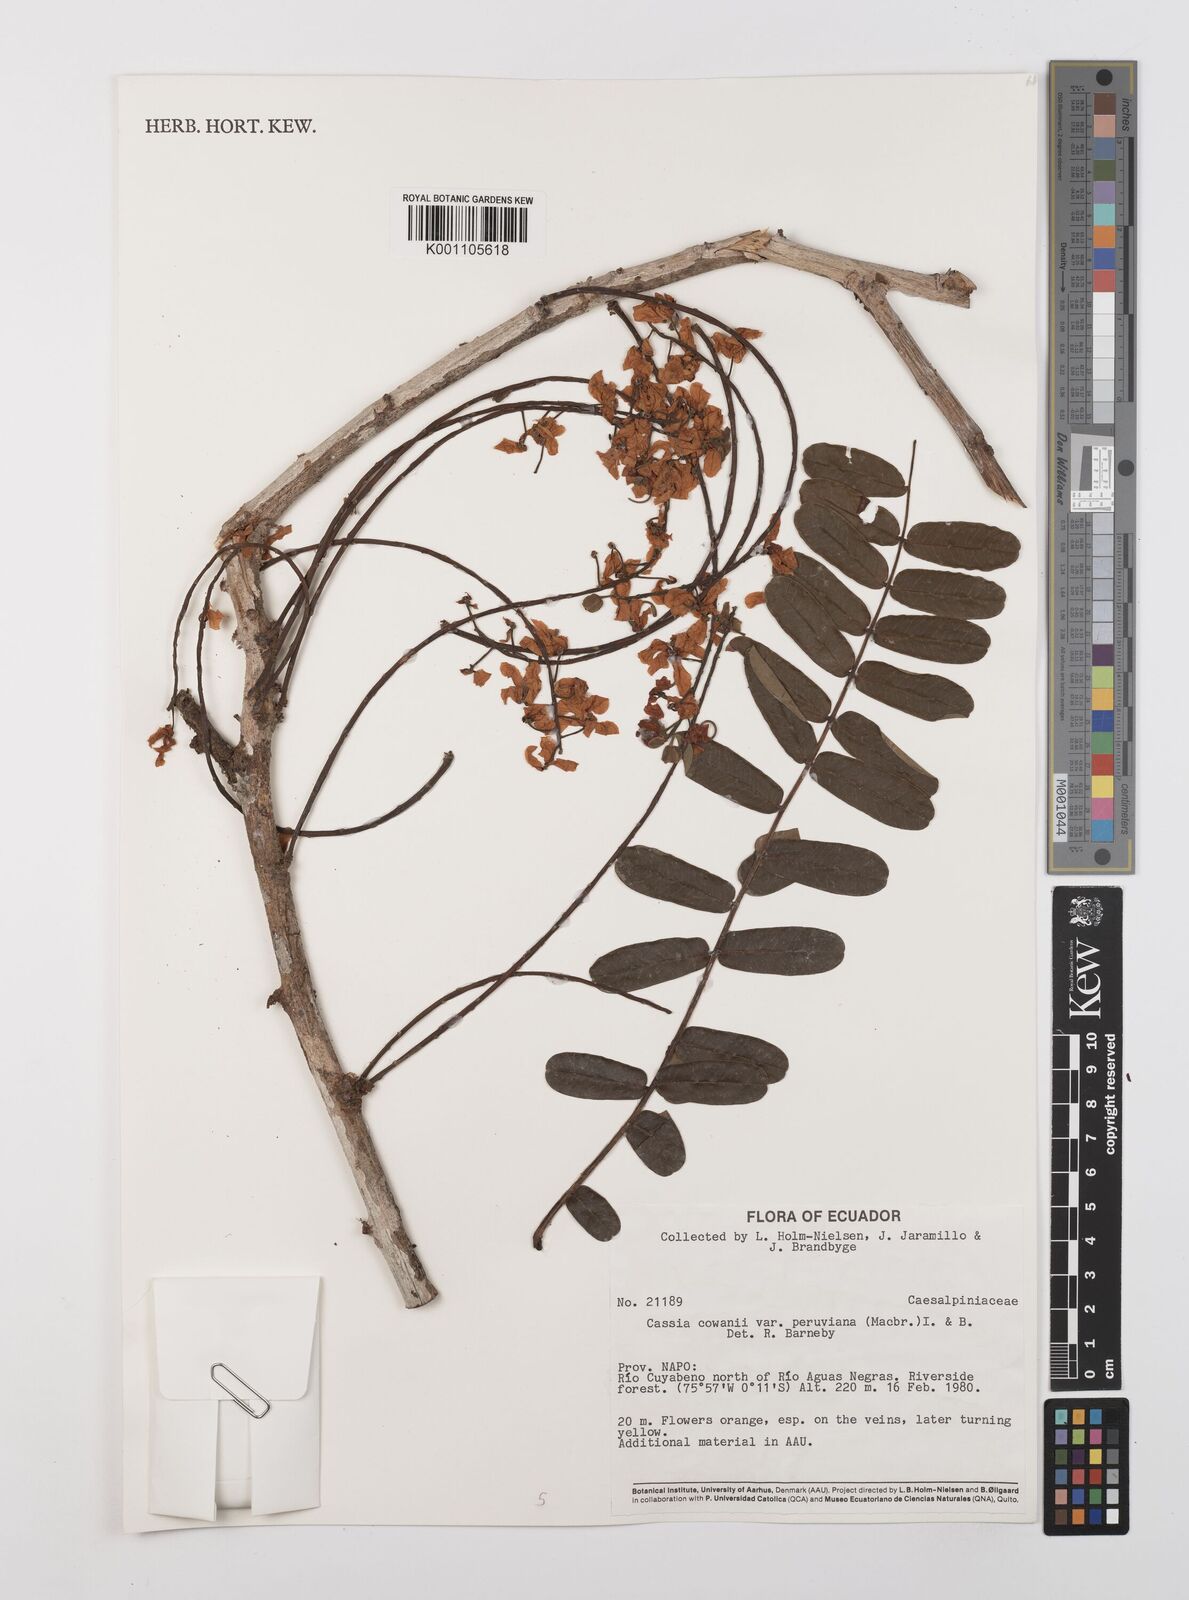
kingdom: Plantae
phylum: Tracheophyta
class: Magnoliopsida
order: Fabales
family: Fabaceae
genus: Cassia
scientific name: Cassia cowanii
